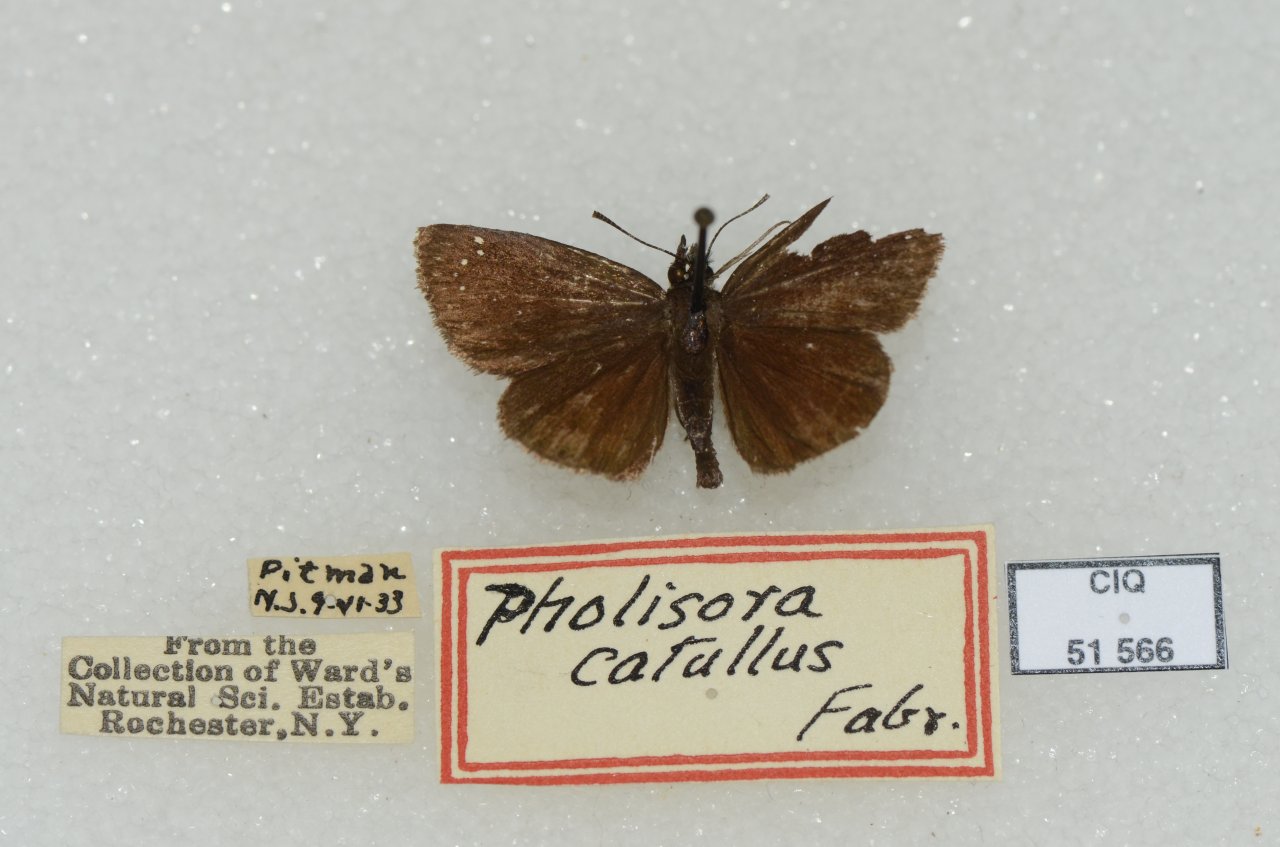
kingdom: Animalia
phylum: Arthropoda
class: Insecta
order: Lepidoptera
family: Hesperiidae
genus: Pholisora
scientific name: Pholisora catullus
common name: Common Sootywing
